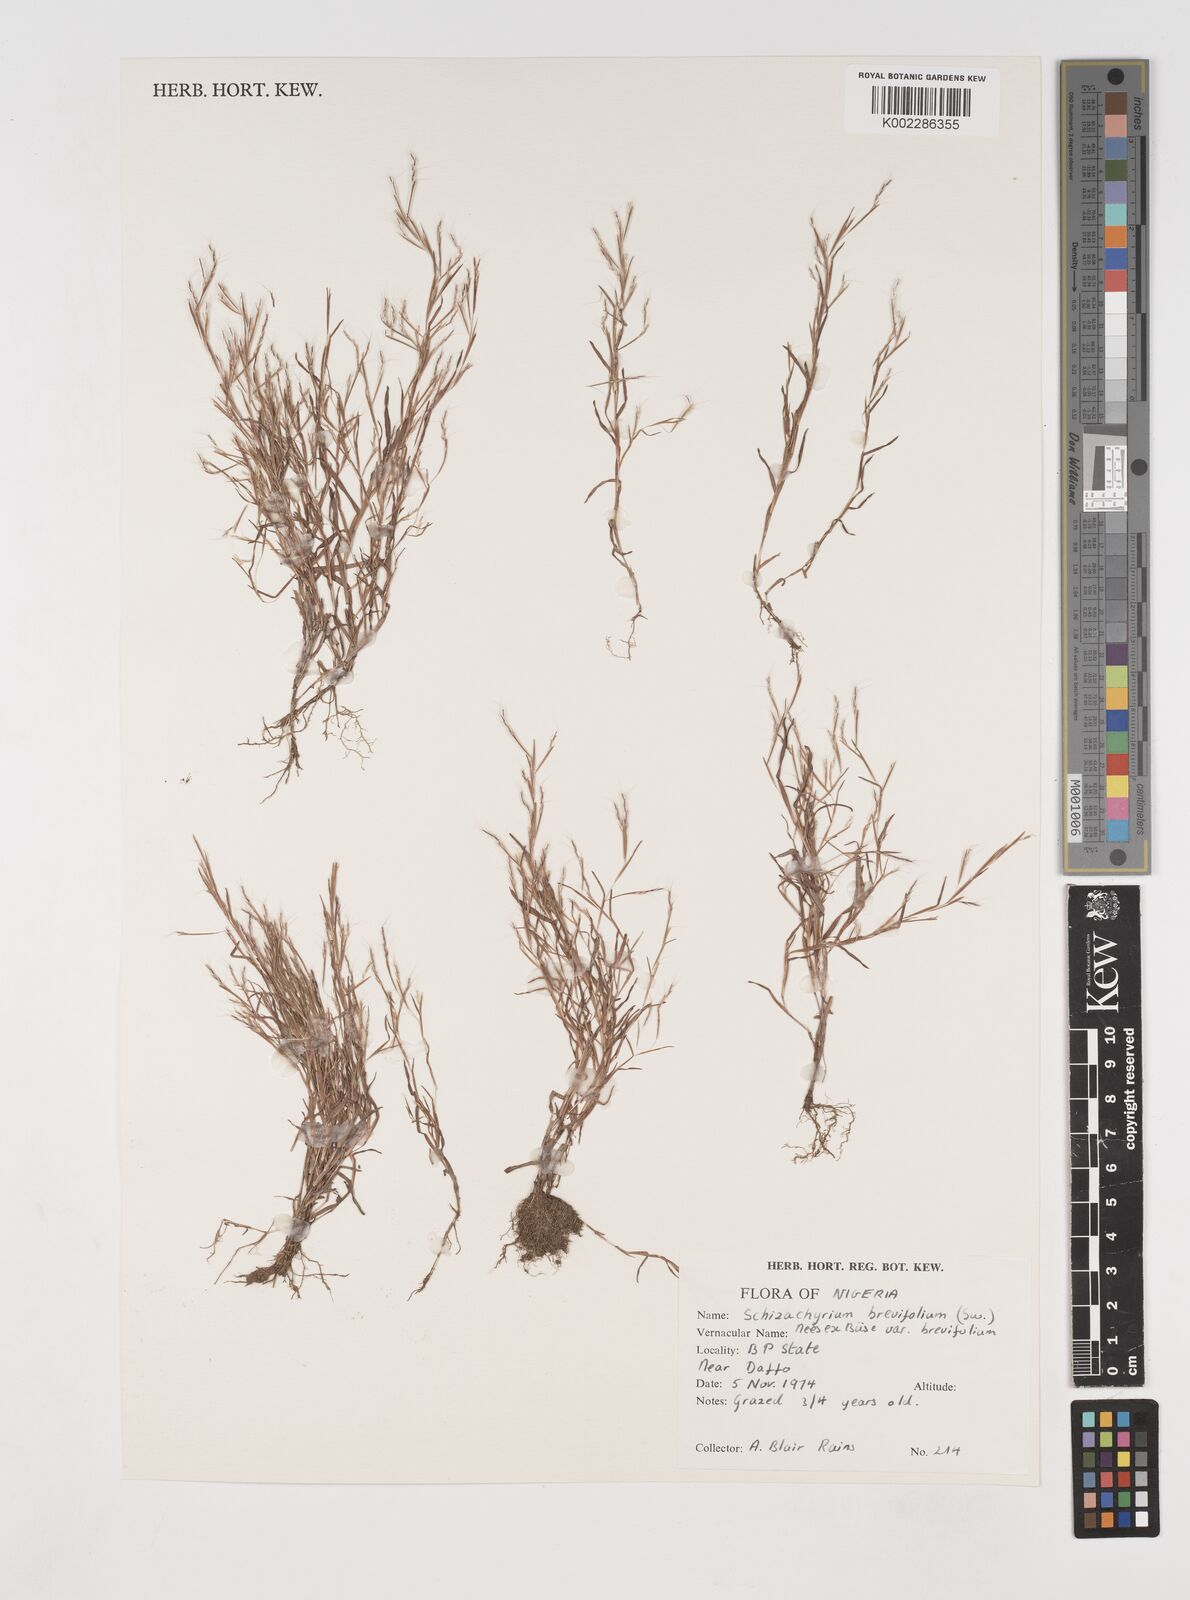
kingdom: Plantae
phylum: Tracheophyta
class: Liliopsida
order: Poales
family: Poaceae
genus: Schizachyrium
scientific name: Schizachyrium brevifolium
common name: Serillo dulce
